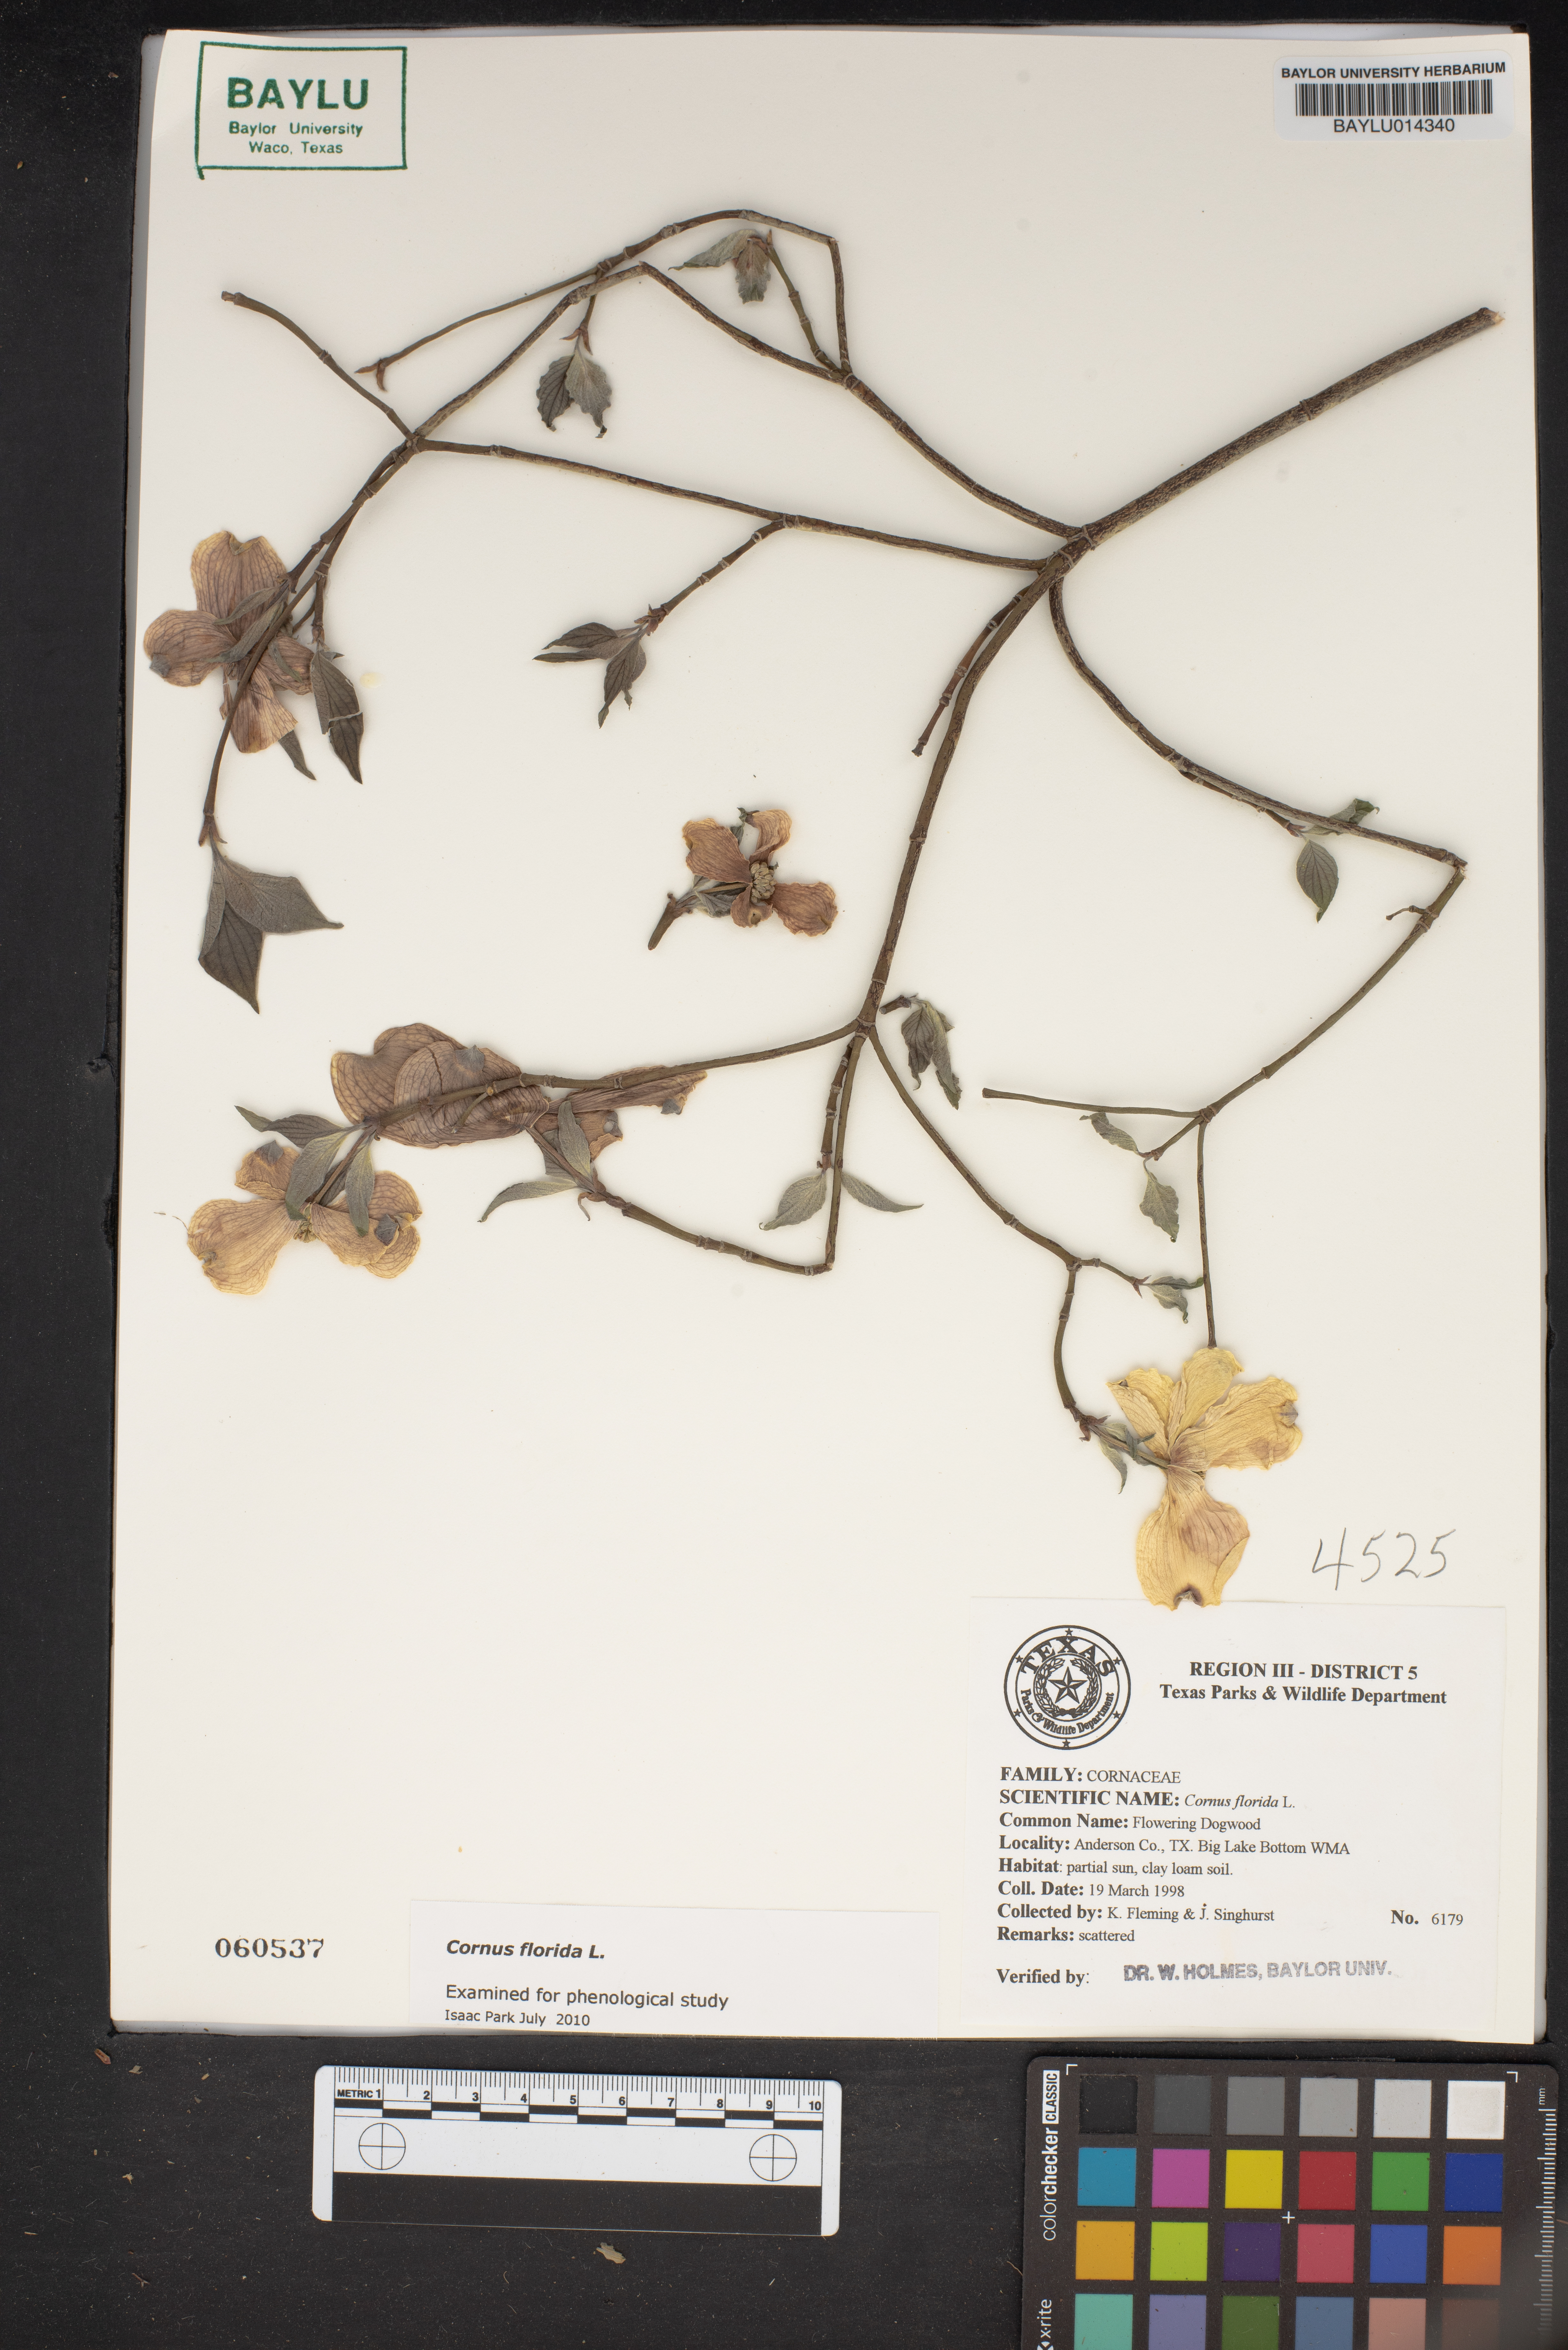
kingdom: Plantae
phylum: Tracheophyta
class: Magnoliopsida
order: Cornales
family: Cornaceae
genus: Cornus
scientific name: Cornus florida
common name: Flowering dogwood
